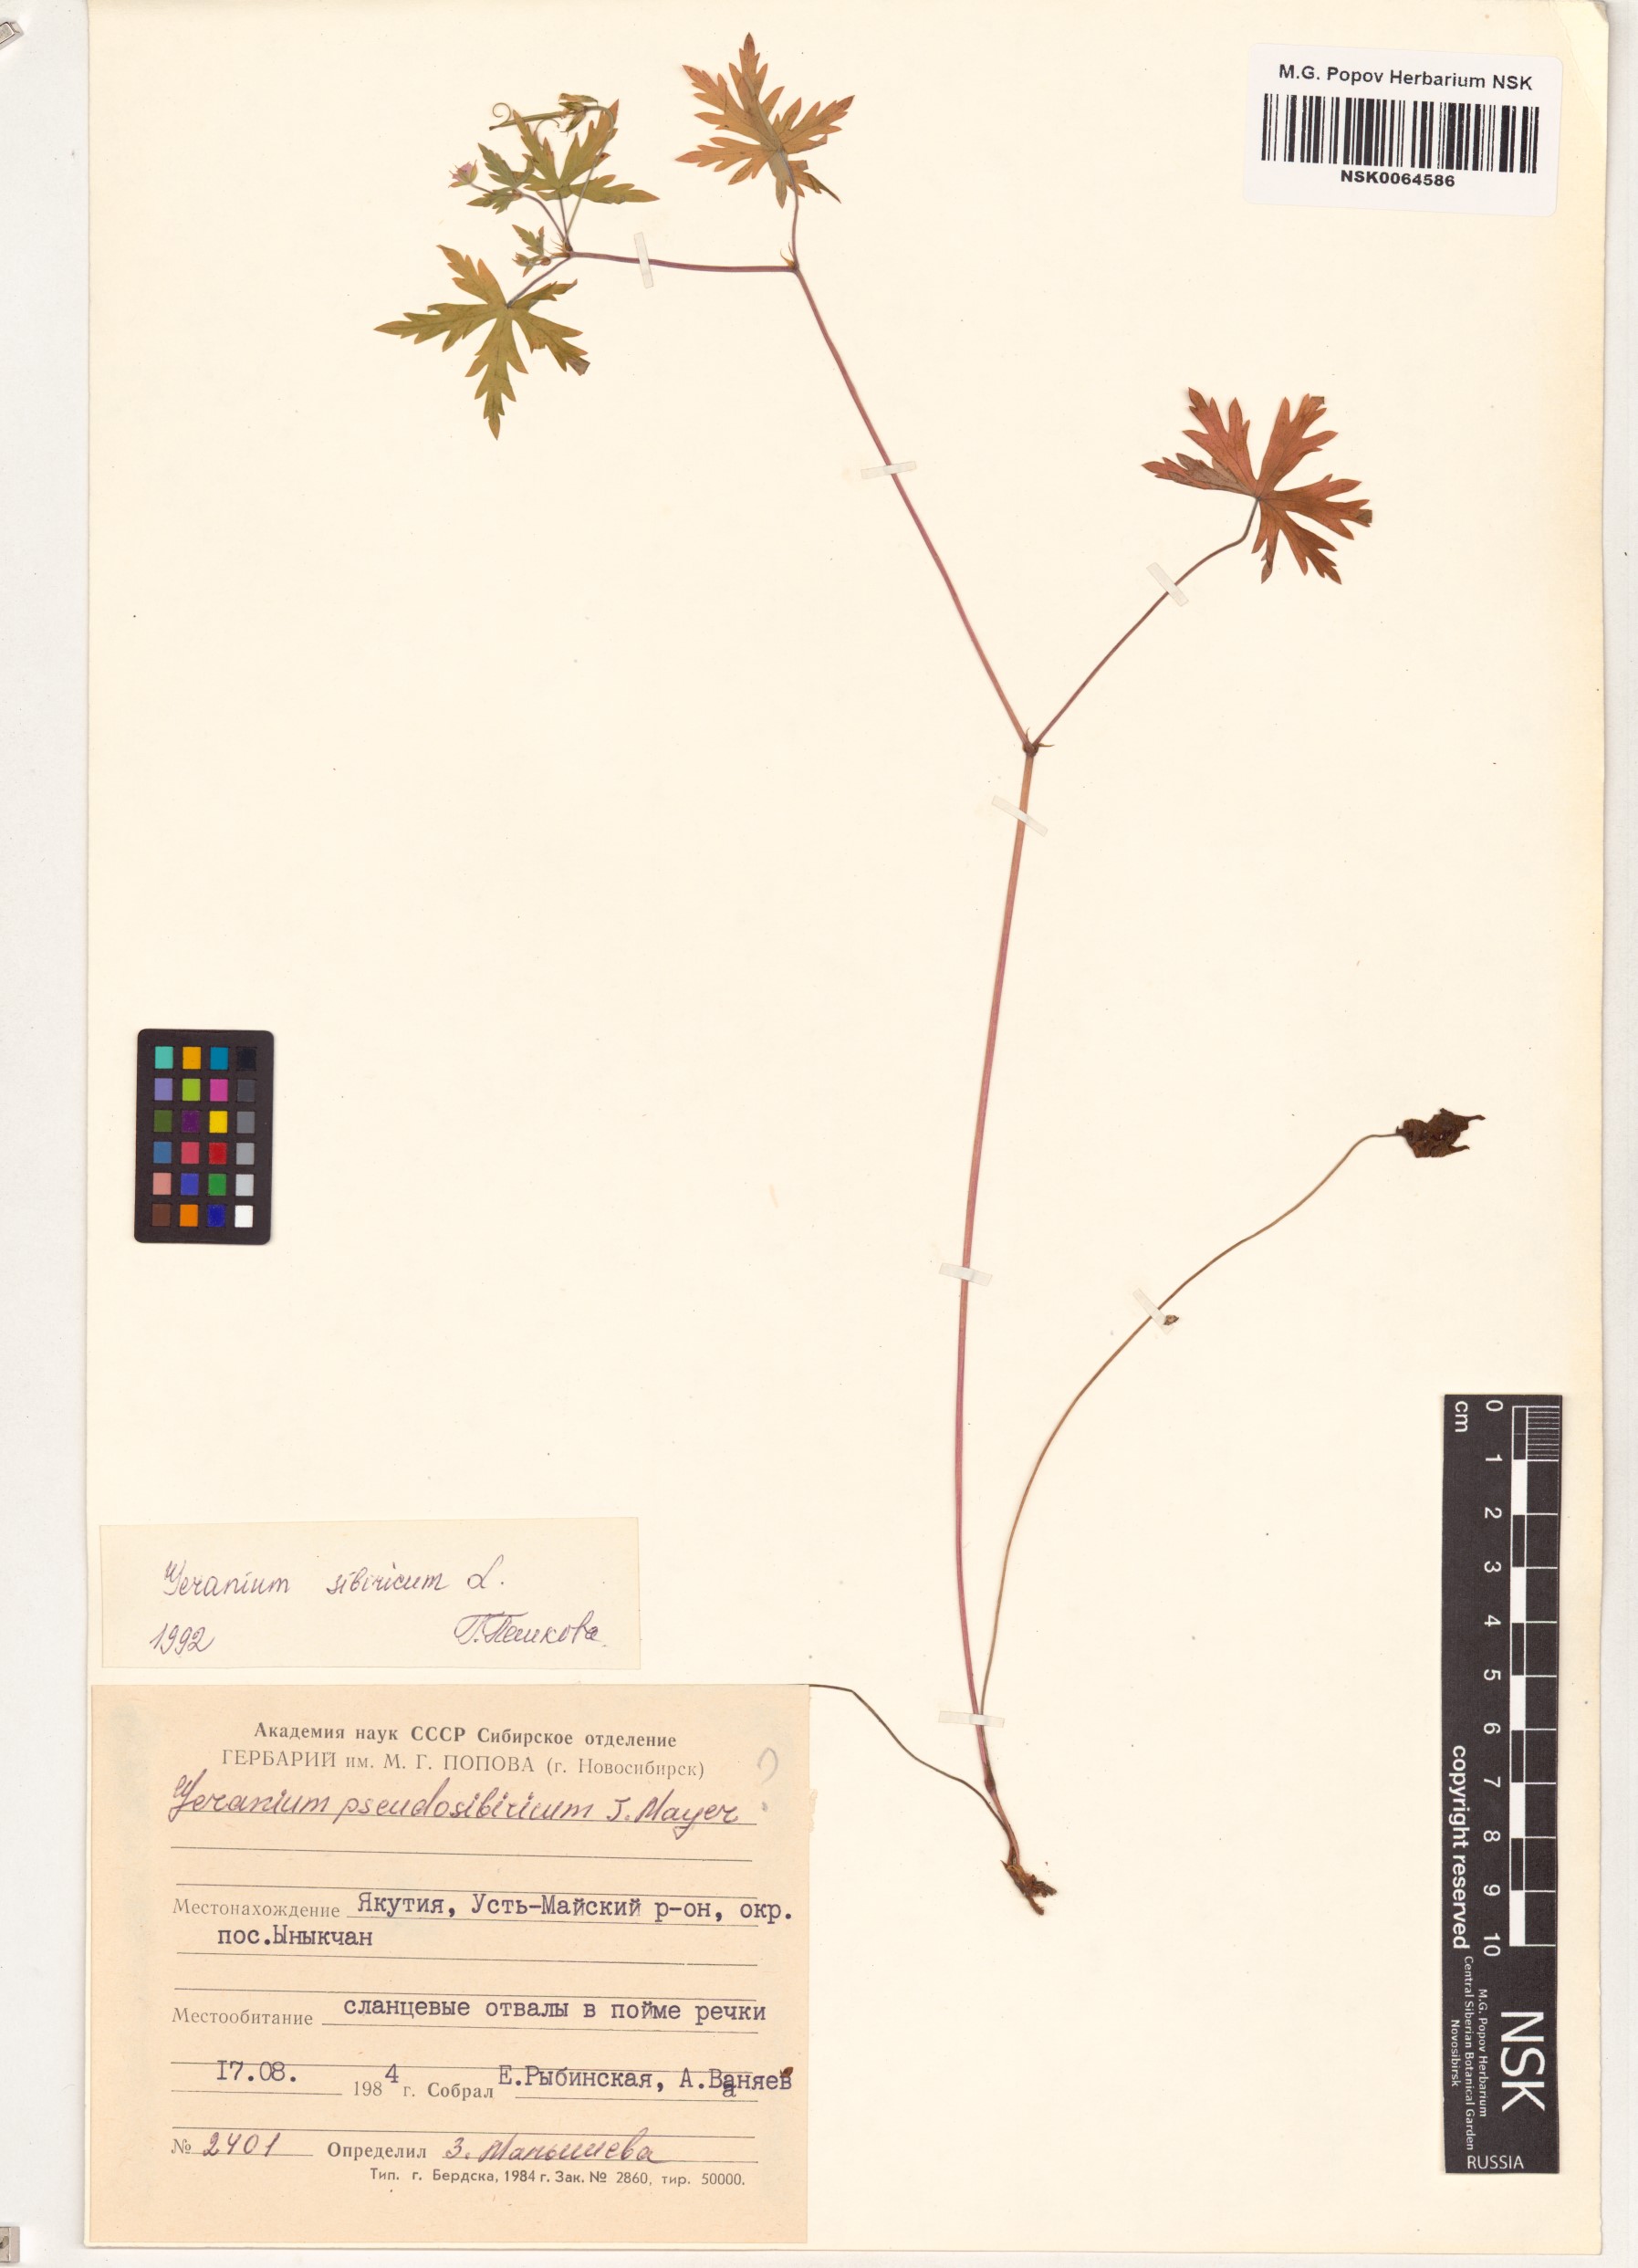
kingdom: Plantae
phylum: Tracheophyta
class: Magnoliopsida
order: Geraniales
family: Geraniaceae
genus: Geranium
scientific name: Geranium sibiricum
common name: Siberian crane's-bill
